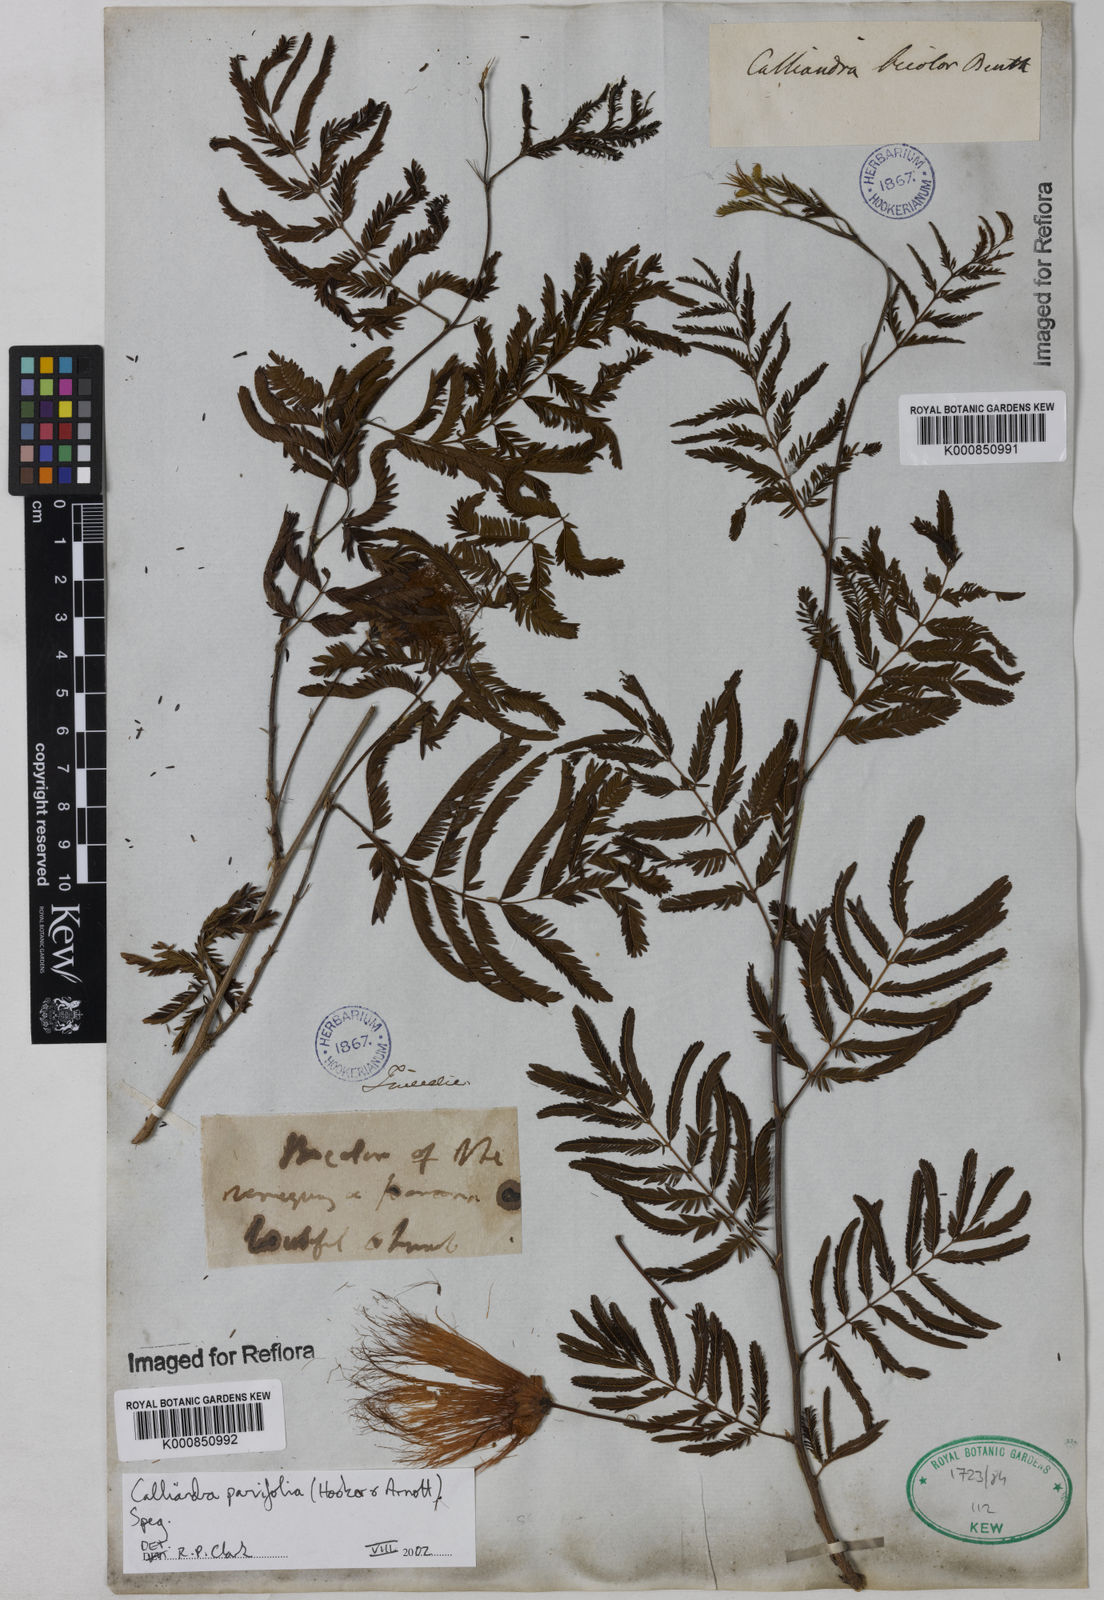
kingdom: Plantae
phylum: Tracheophyta
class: Magnoliopsida
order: Fabales
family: Fabaceae
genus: Calliandra
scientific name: Calliandra parvifolia
